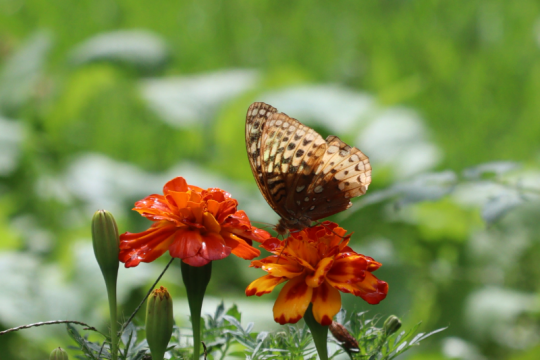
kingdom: Animalia
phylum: Arthropoda
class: Insecta
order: Lepidoptera
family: Nymphalidae
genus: Speyeria
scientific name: Speyeria cybele
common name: Great Spangled Fritillary
